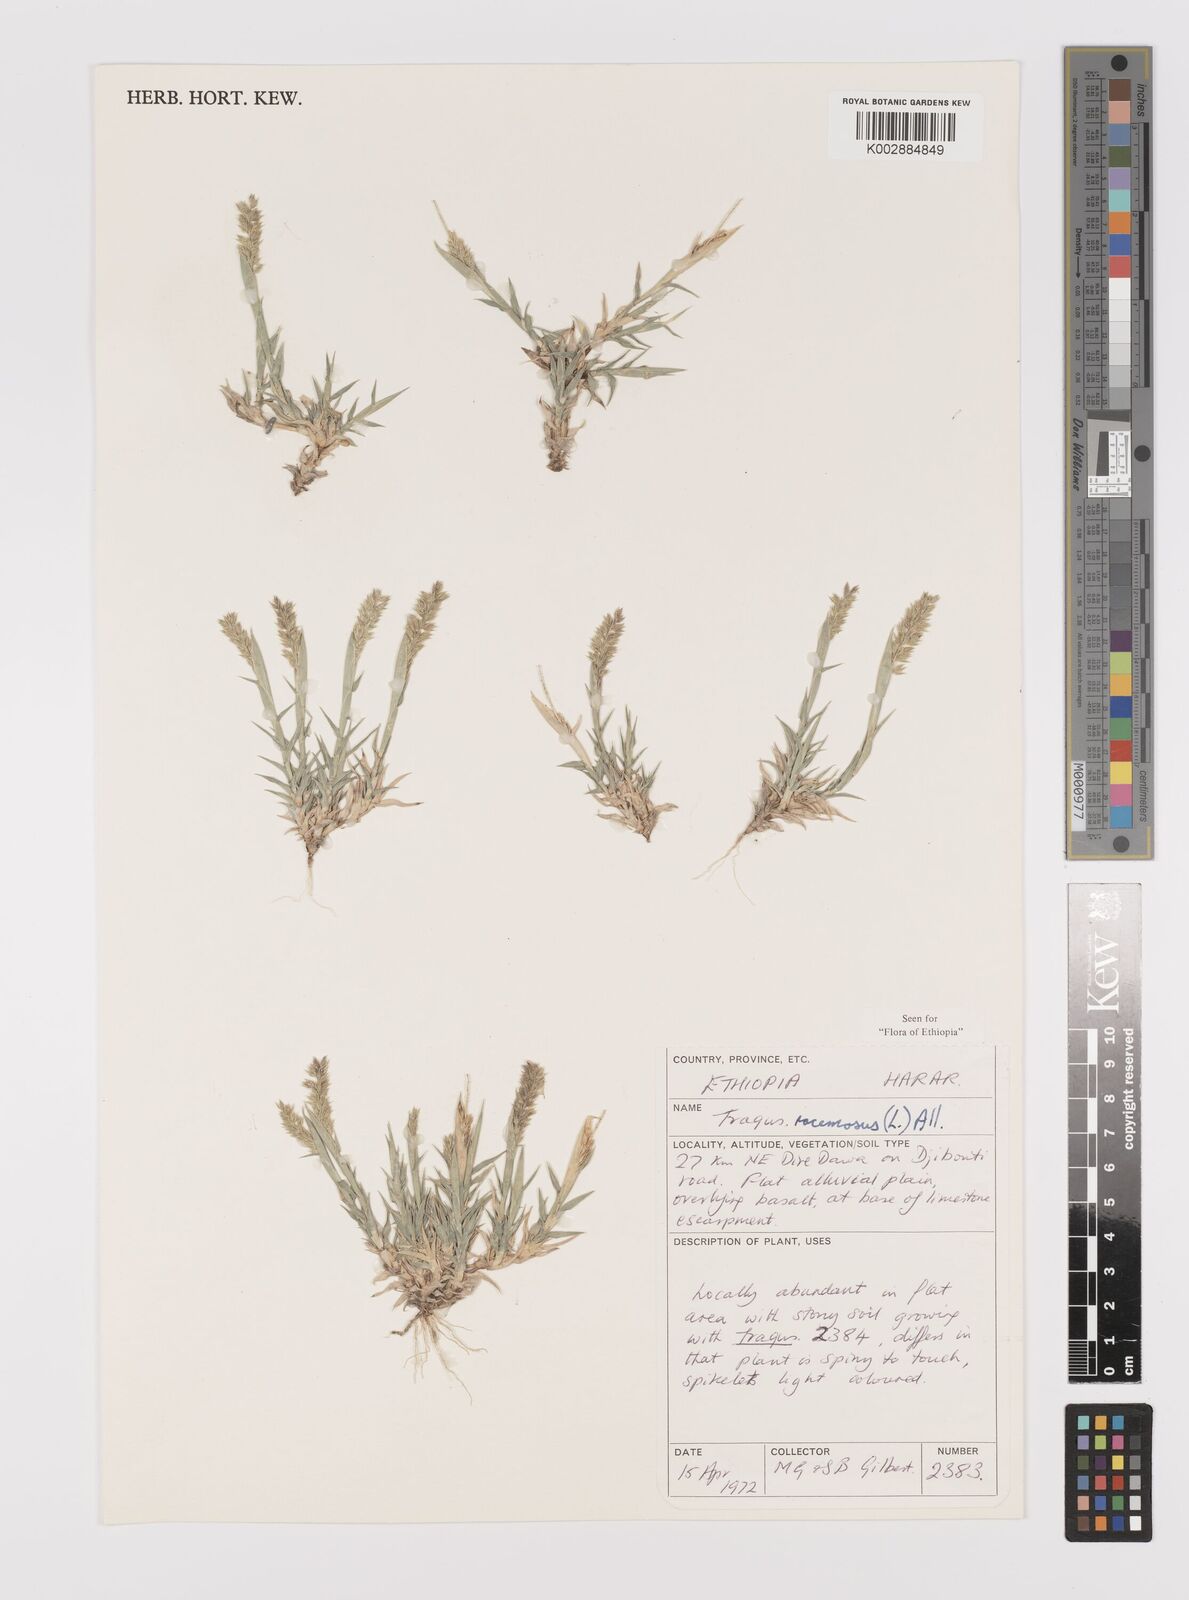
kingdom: Plantae
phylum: Tracheophyta
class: Liliopsida
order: Poales
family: Poaceae
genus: Tragus
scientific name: Tragus racemosus
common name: European bur-grass
